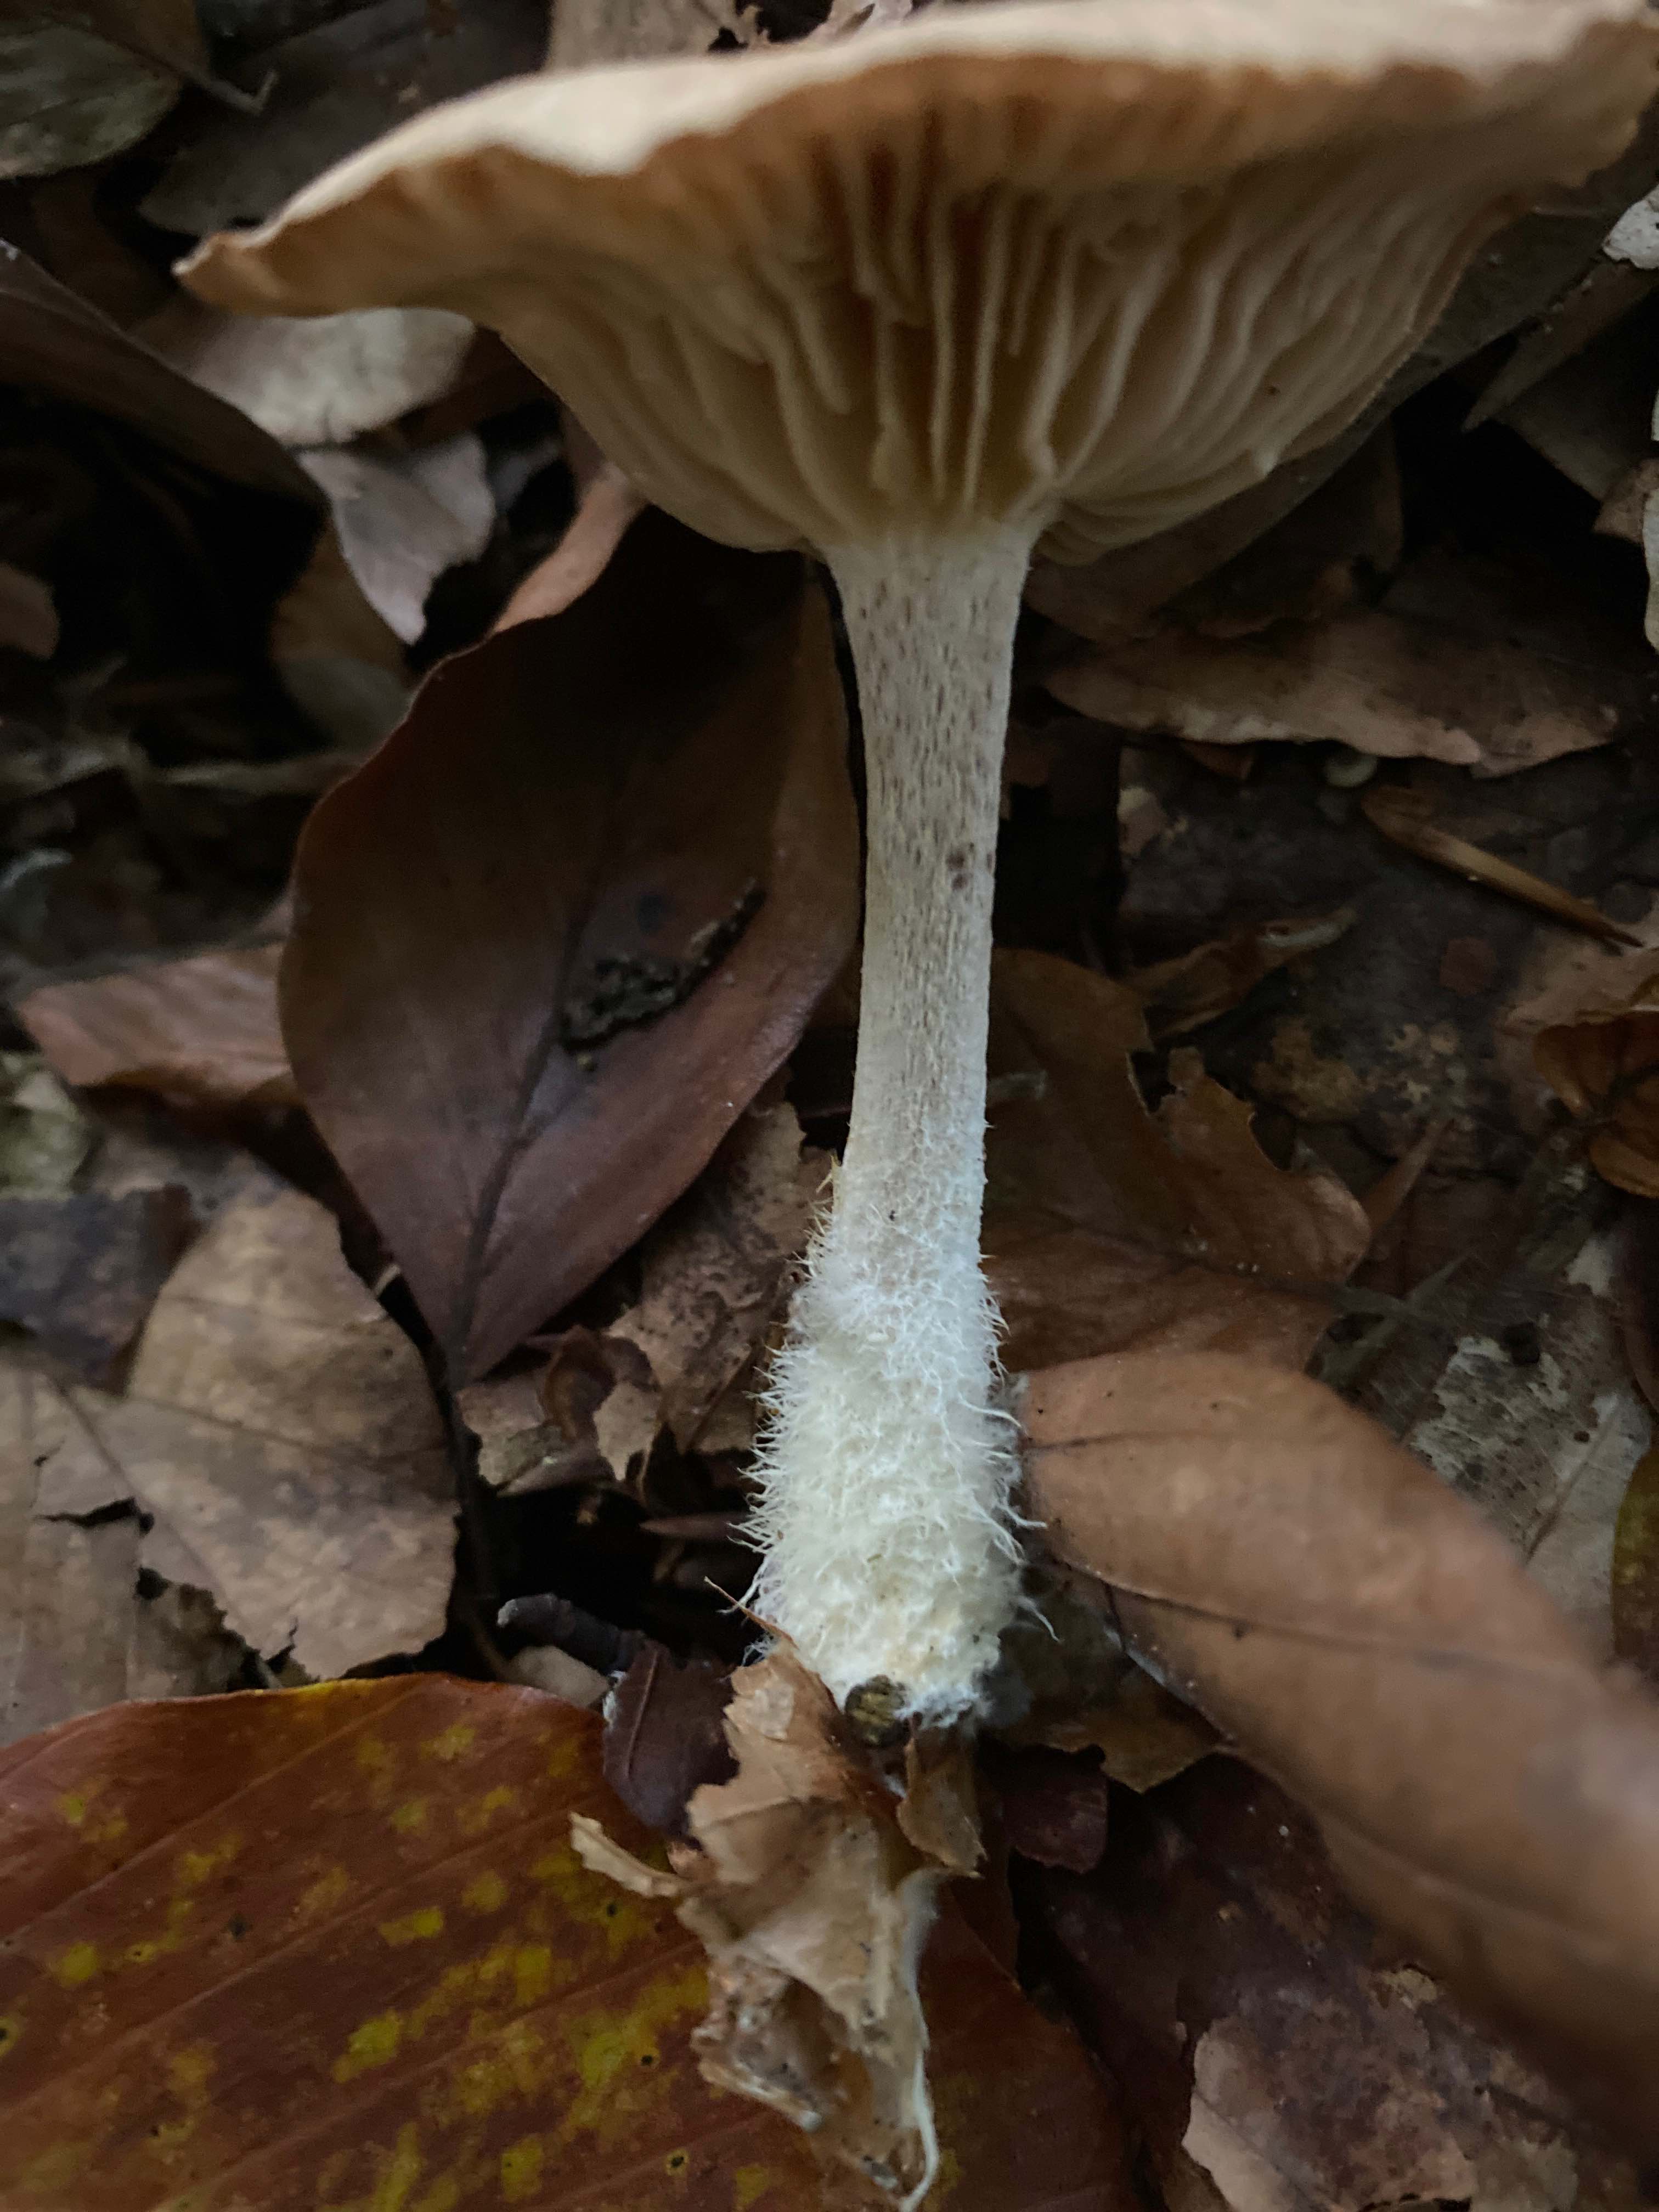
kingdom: Fungi
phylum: Basidiomycota
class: Agaricomycetes
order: Agaricales
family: Omphalotaceae
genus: Collybiopsis
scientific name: Collybiopsis peronata
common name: bestøvlet fladhat
